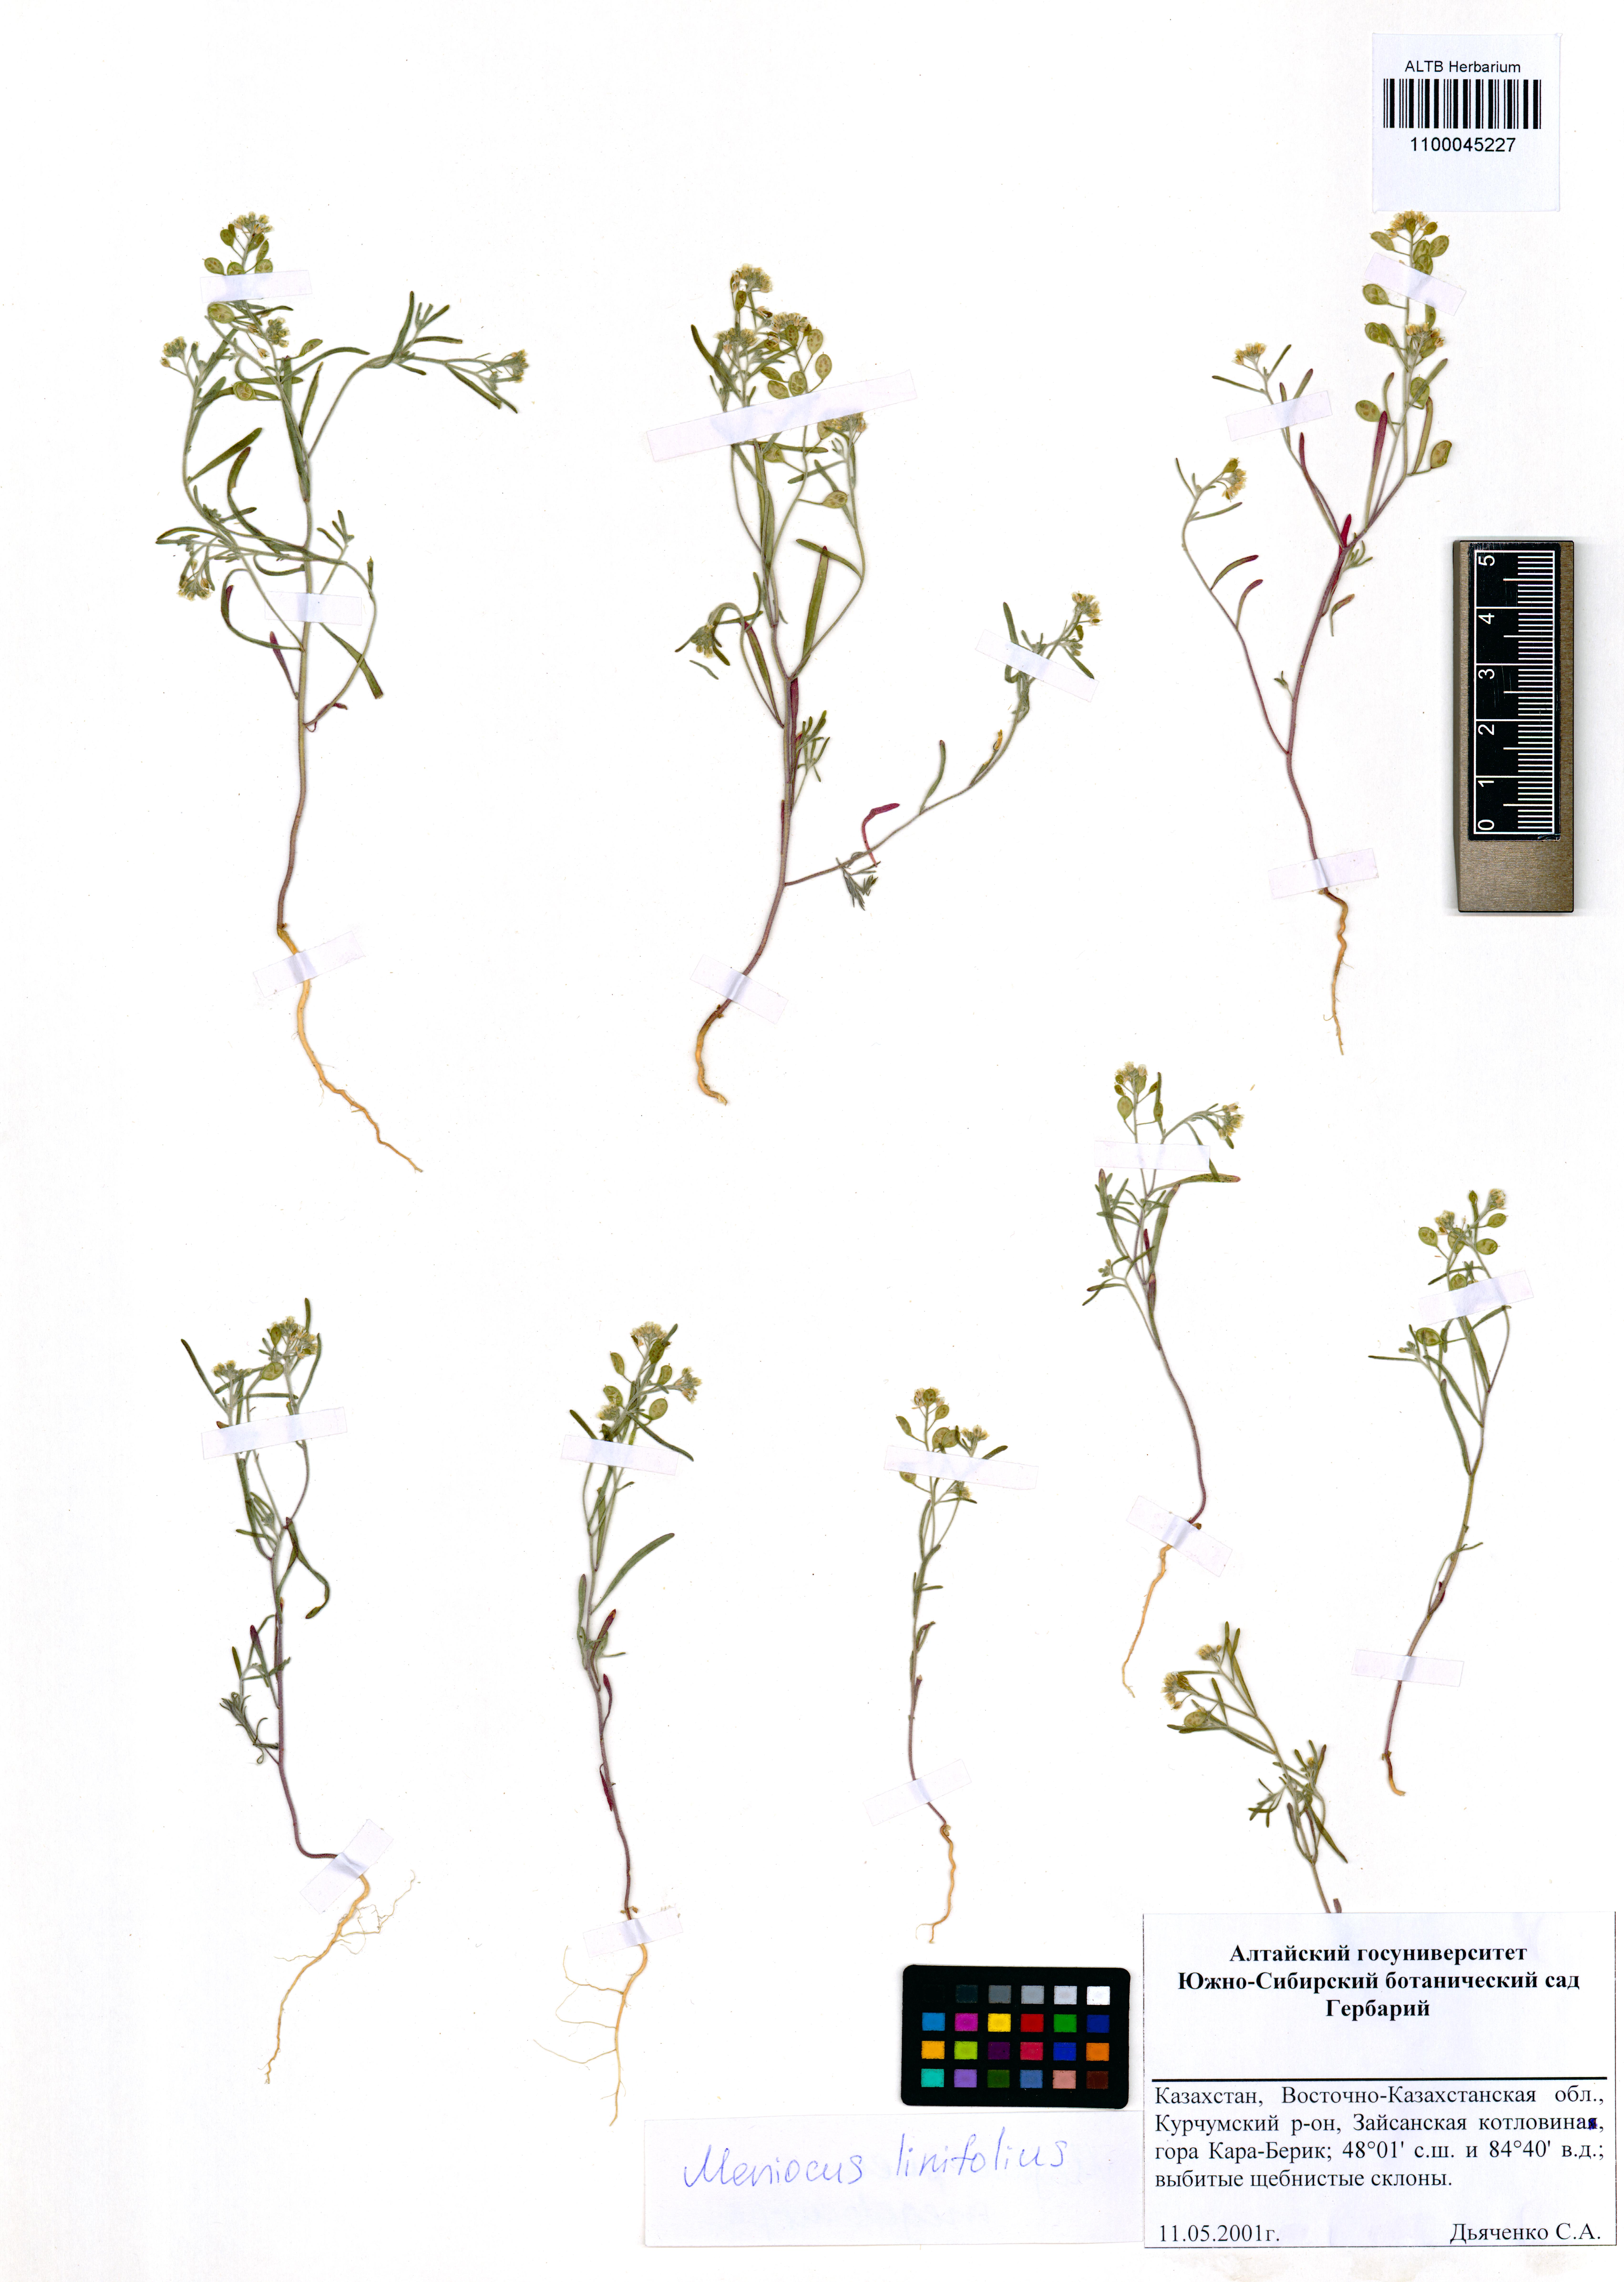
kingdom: Plantae
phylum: Tracheophyta
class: Magnoliopsida
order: Brassicales
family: Brassicaceae
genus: Meniocus
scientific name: Meniocus linifolius
